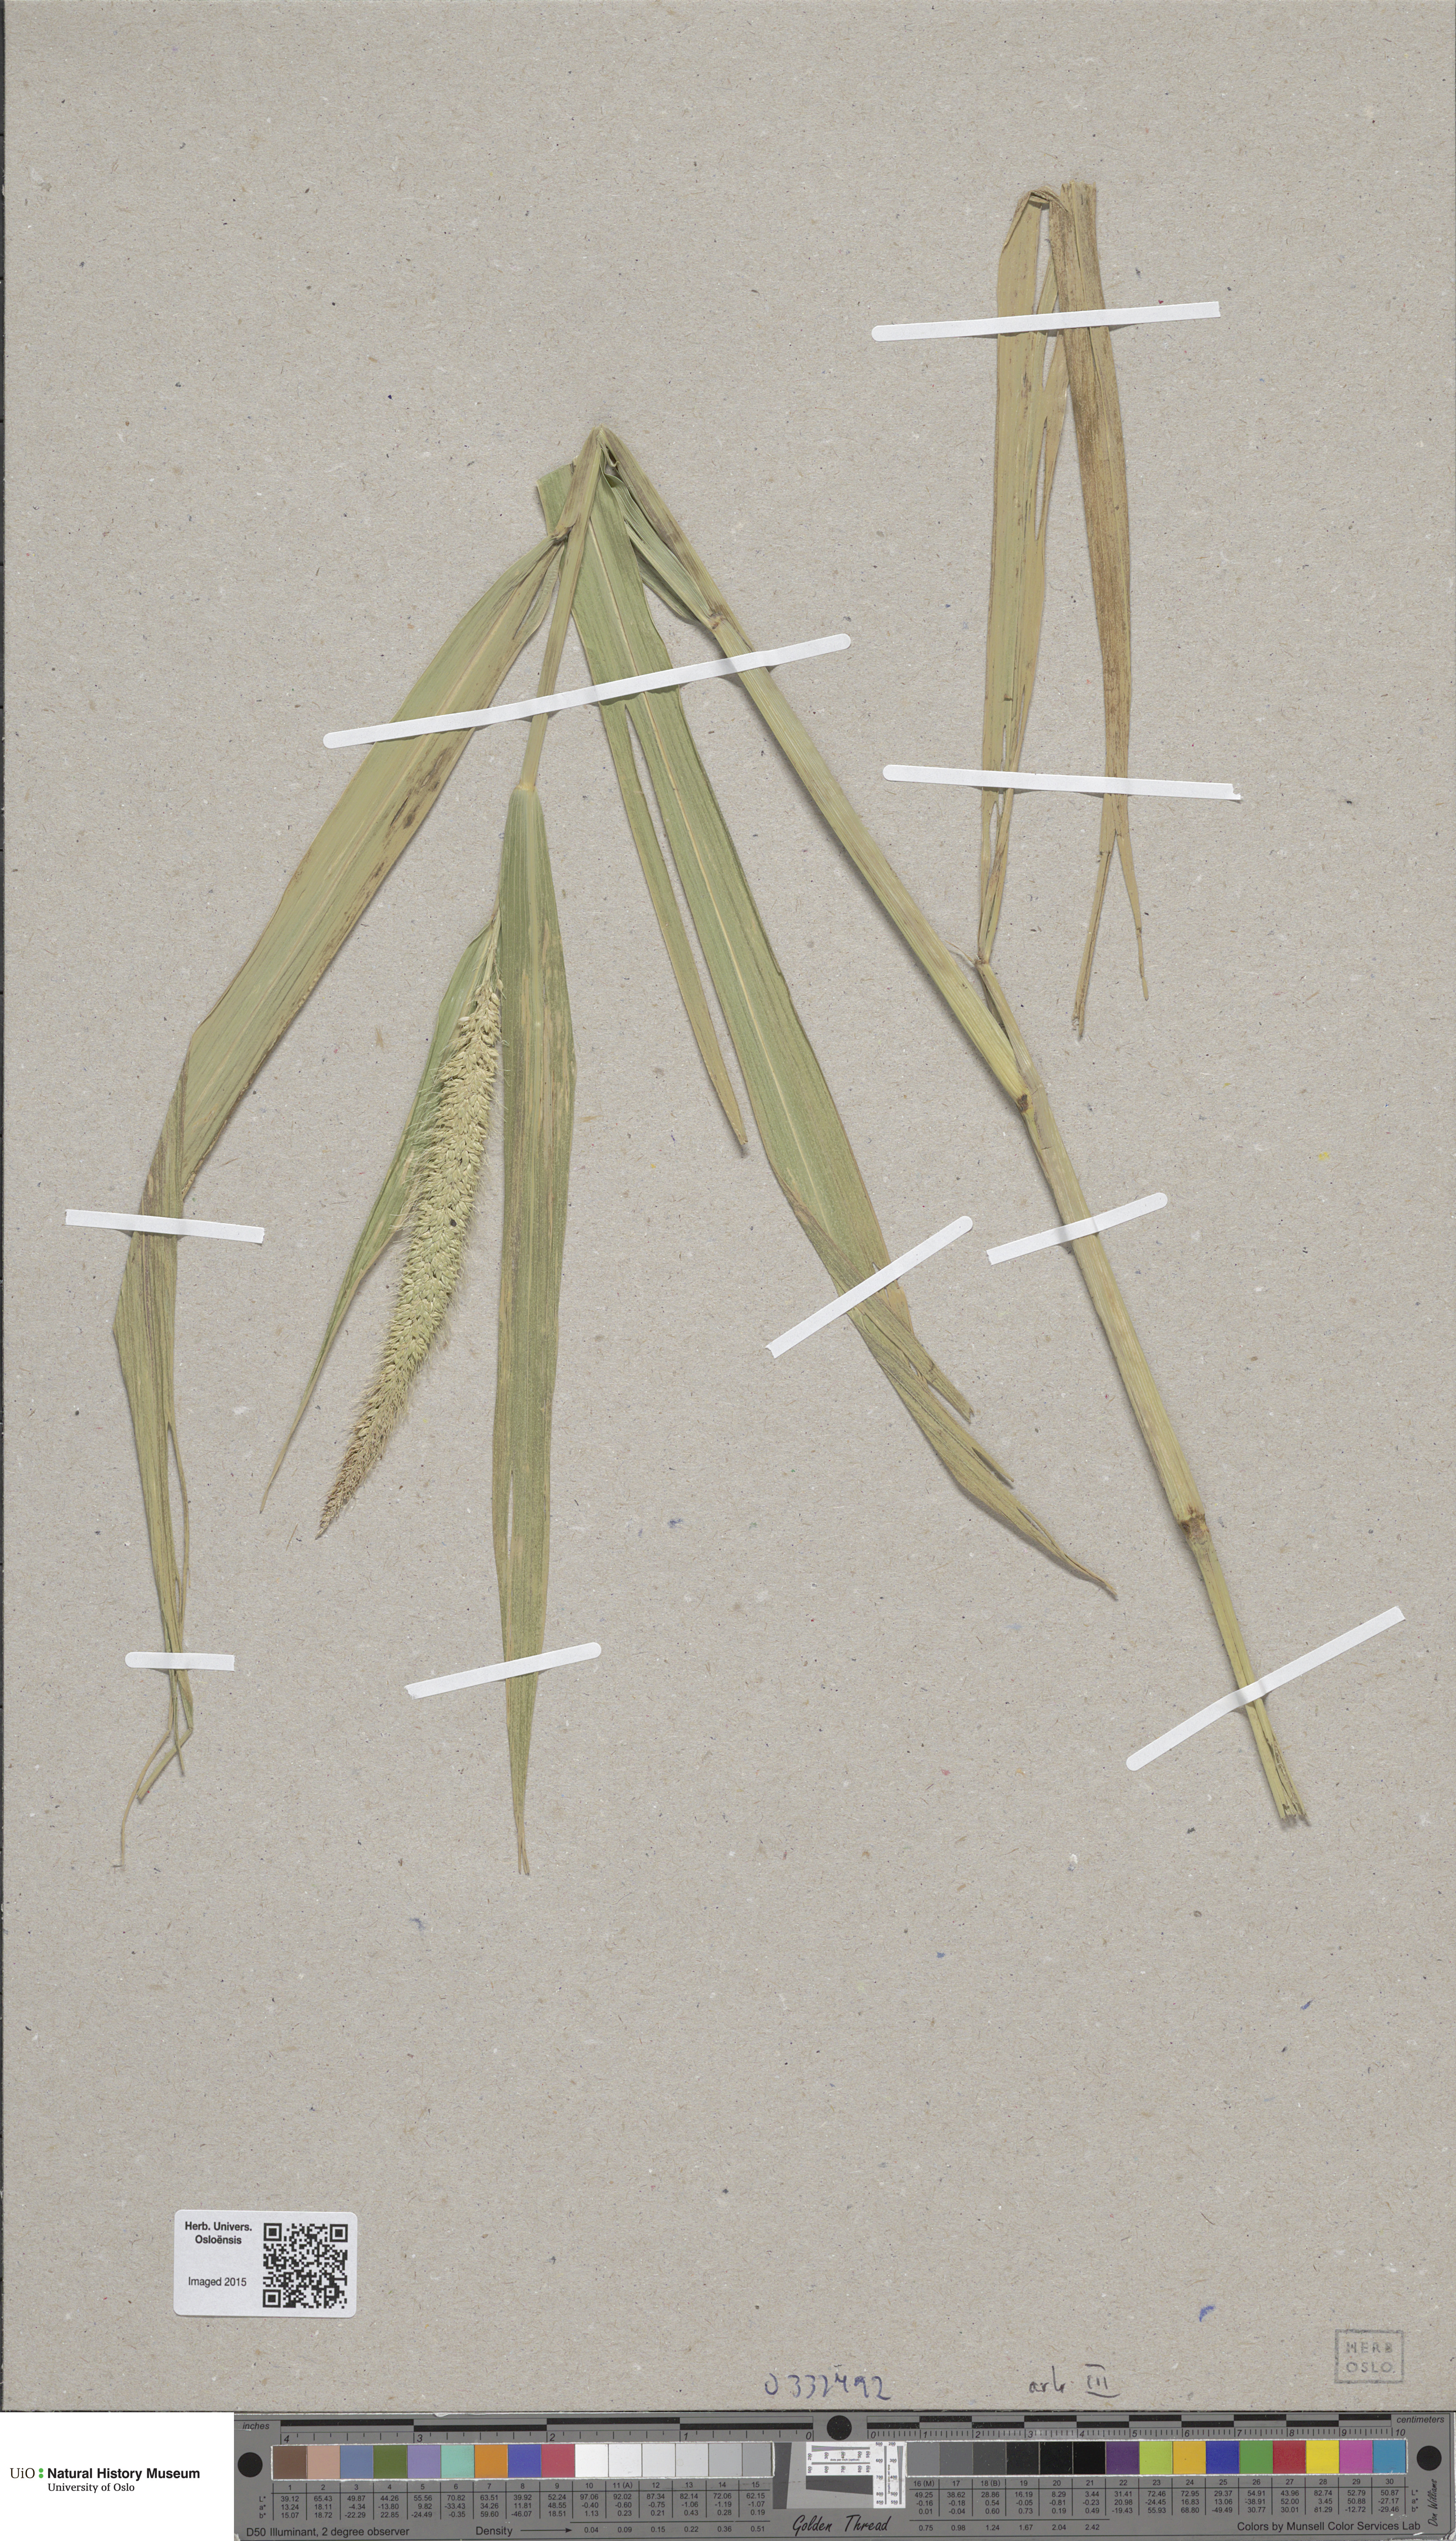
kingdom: Plantae
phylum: Tracheophyta
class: Liliopsida
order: Poales
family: Poaceae
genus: Setaria
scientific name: Setaria italica
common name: Foxtail bristle-grass
